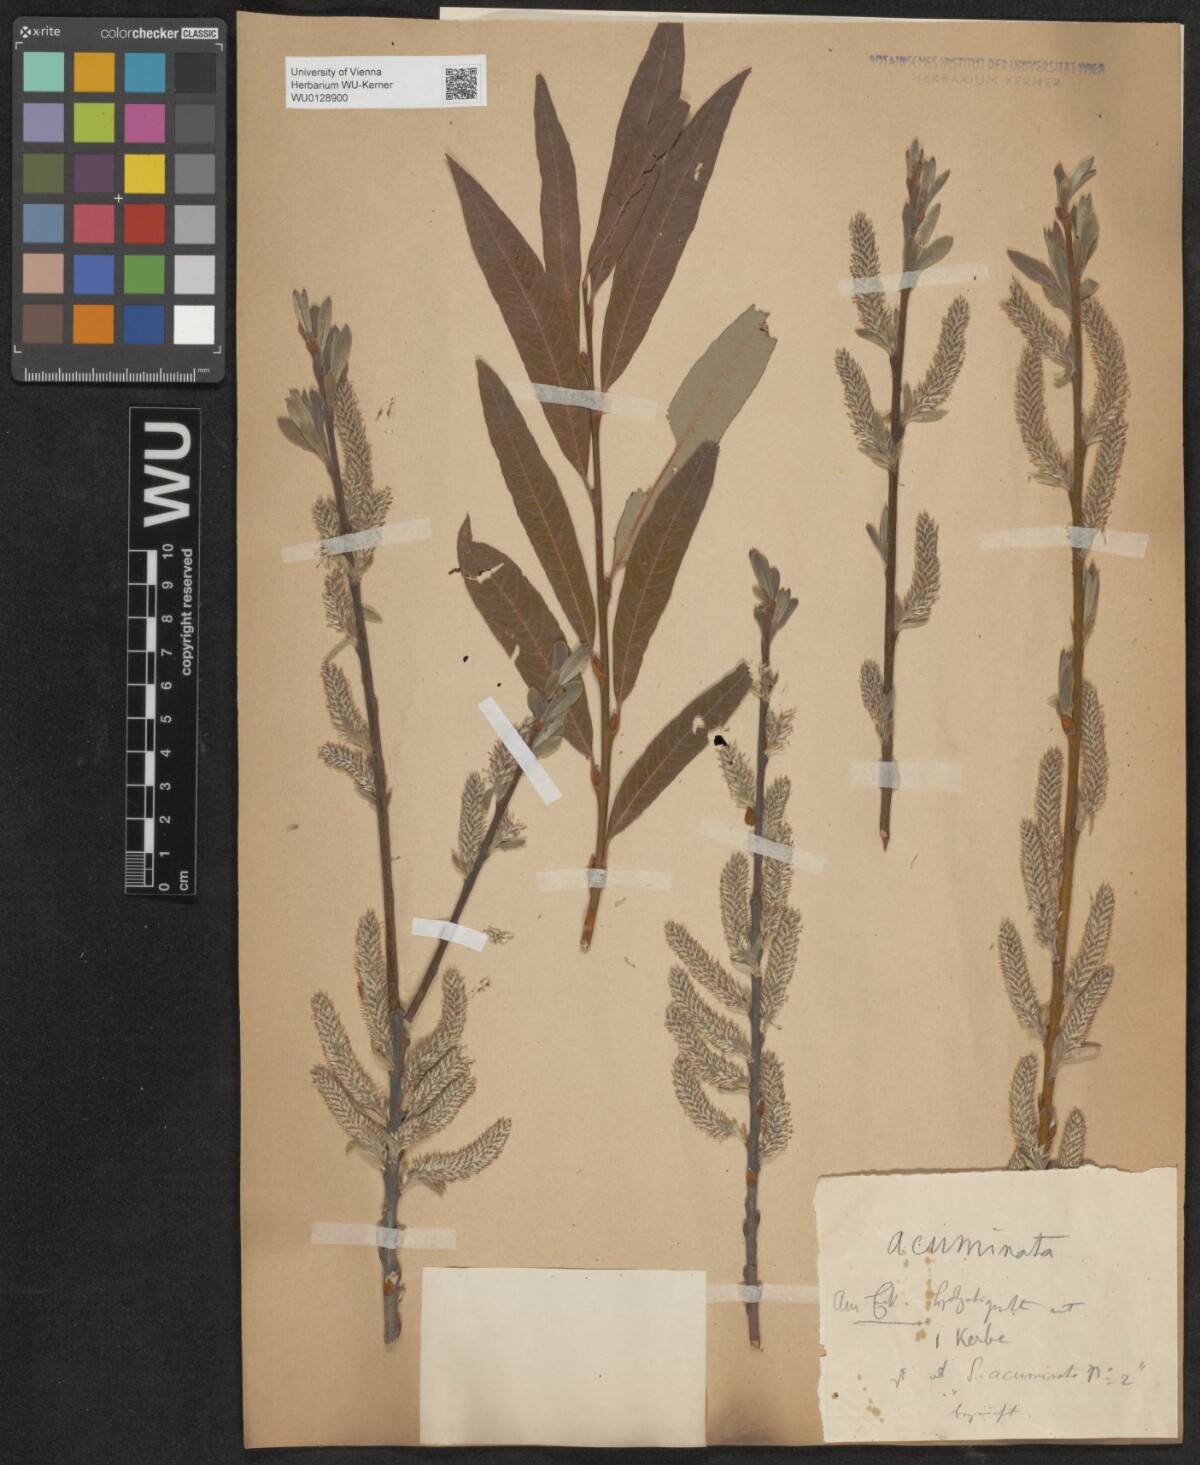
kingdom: Plantae
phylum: Tracheophyta
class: Magnoliopsida
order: Malpighiales
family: Salicaceae
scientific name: Salicaceae
